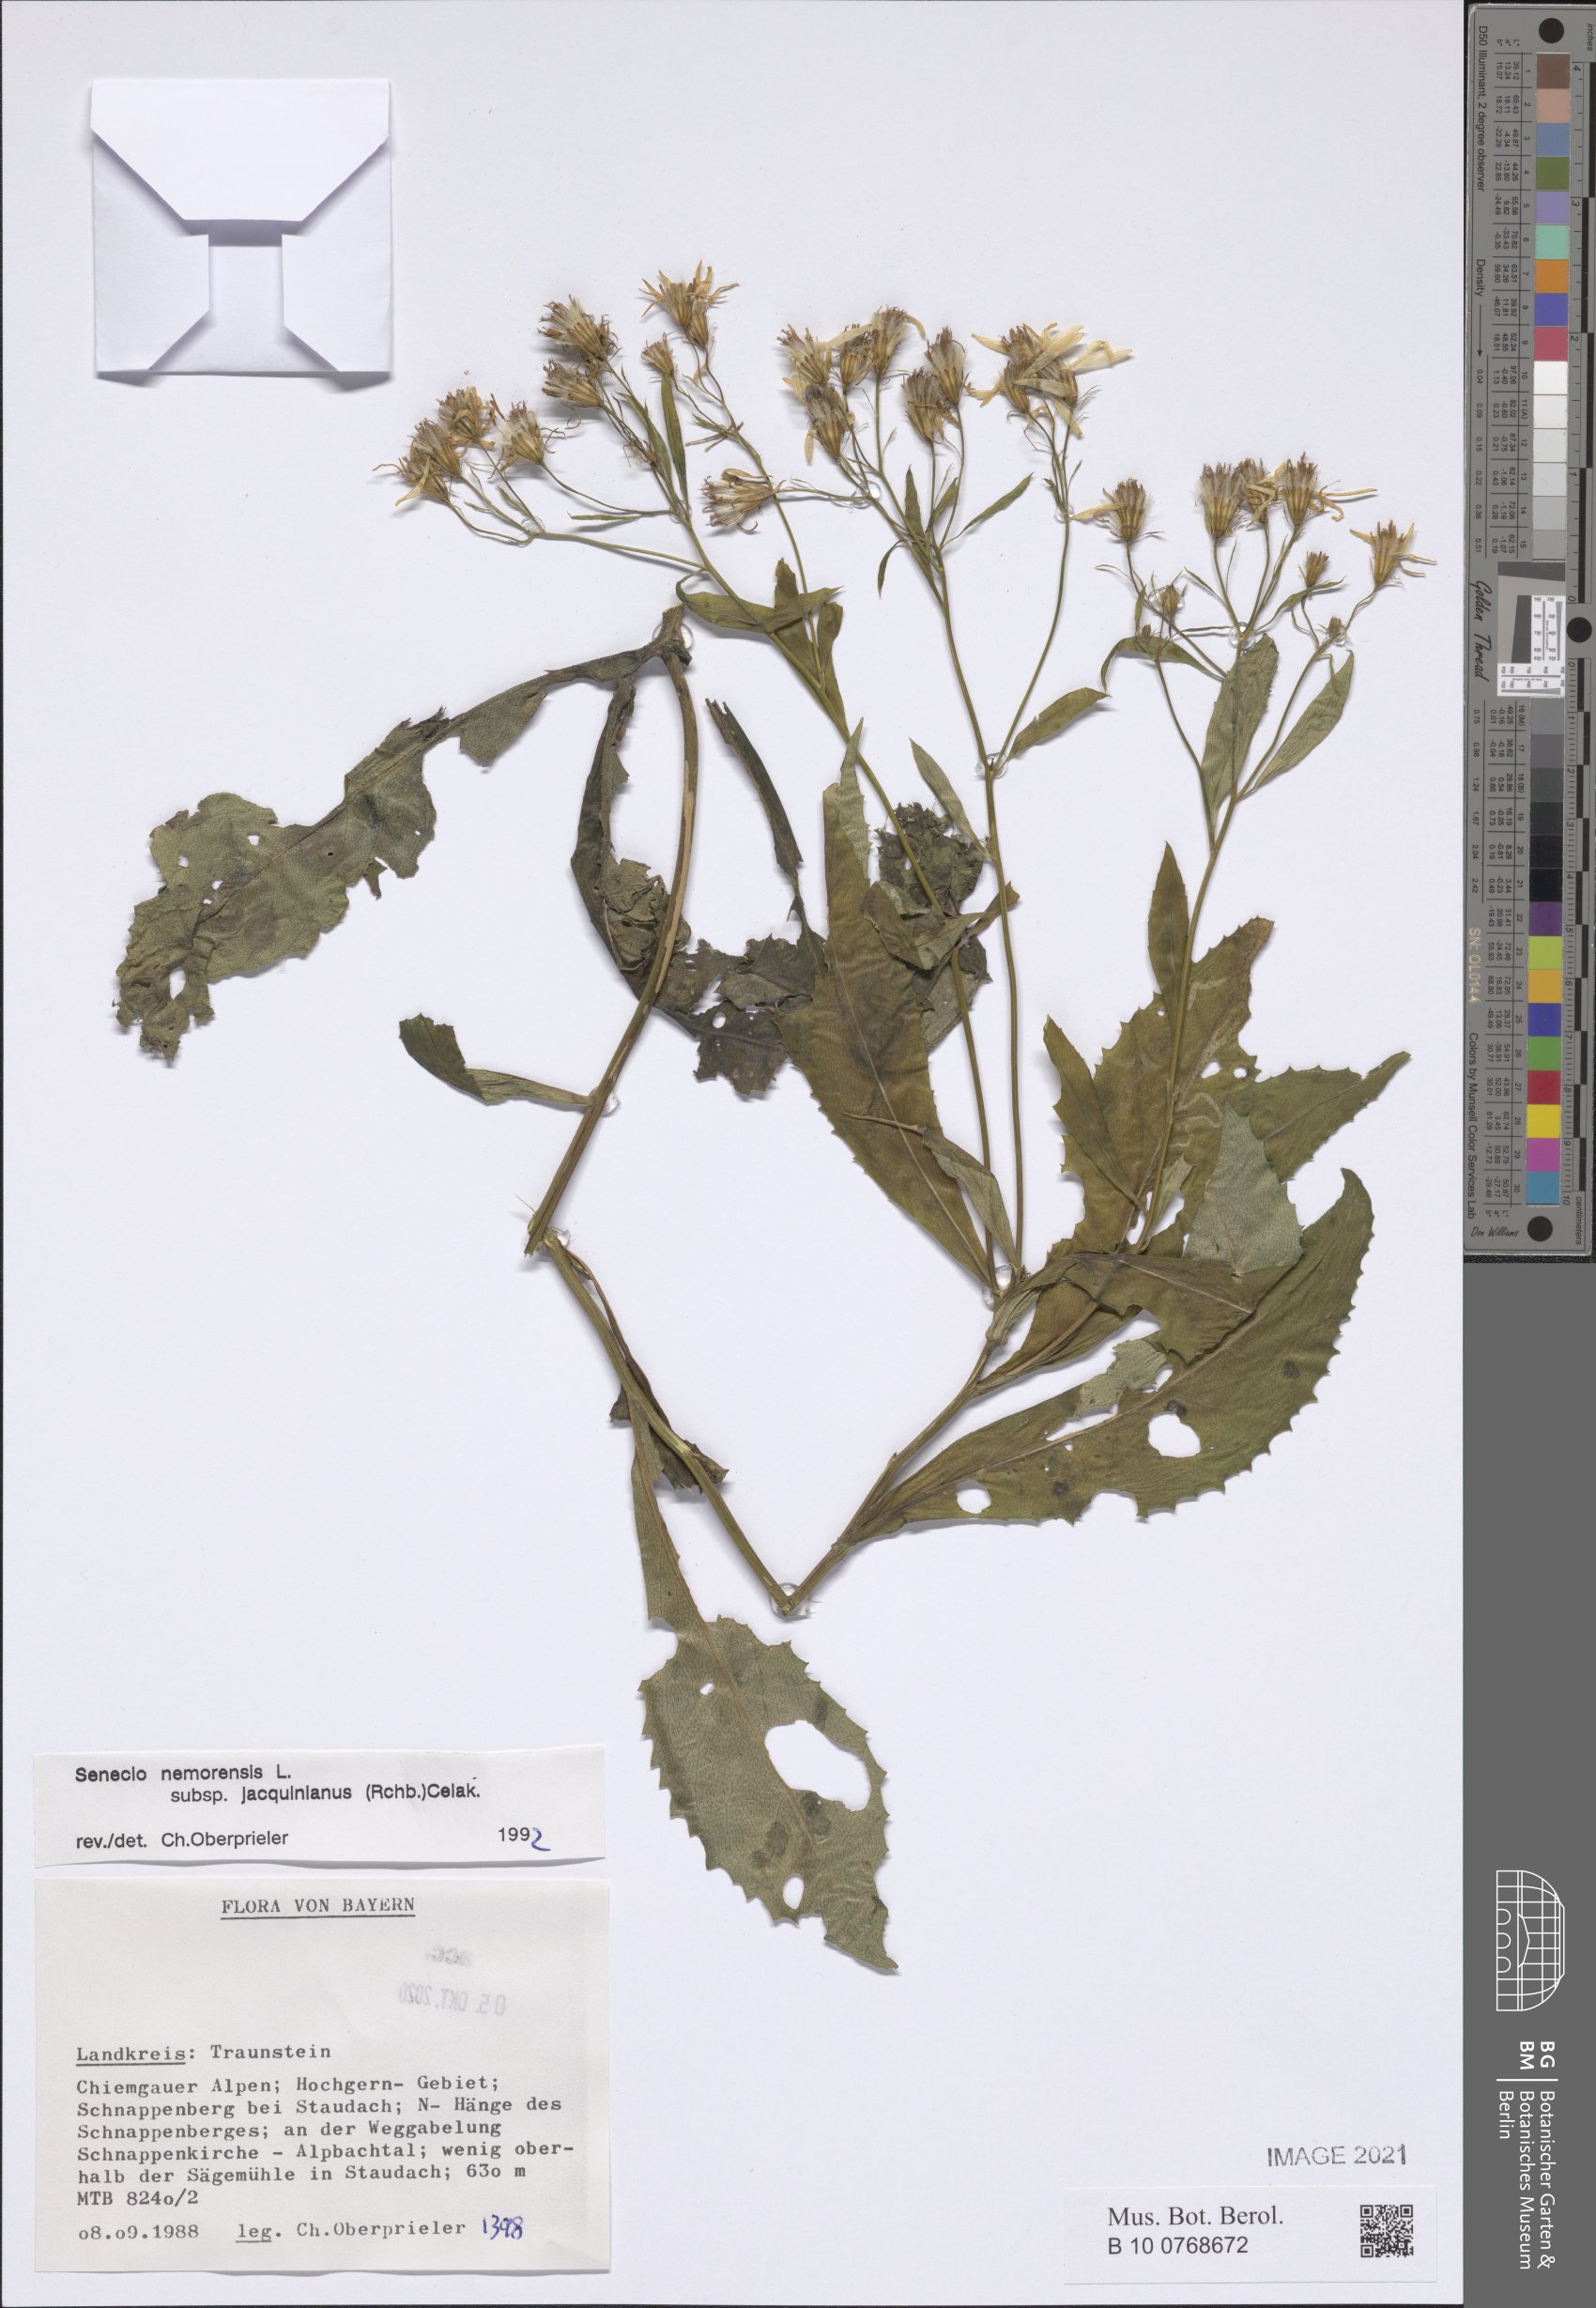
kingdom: Plantae
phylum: Tracheophyta
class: Magnoliopsida
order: Asterales
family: Asteraceae
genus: Senecio
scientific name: Senecio germanicus
